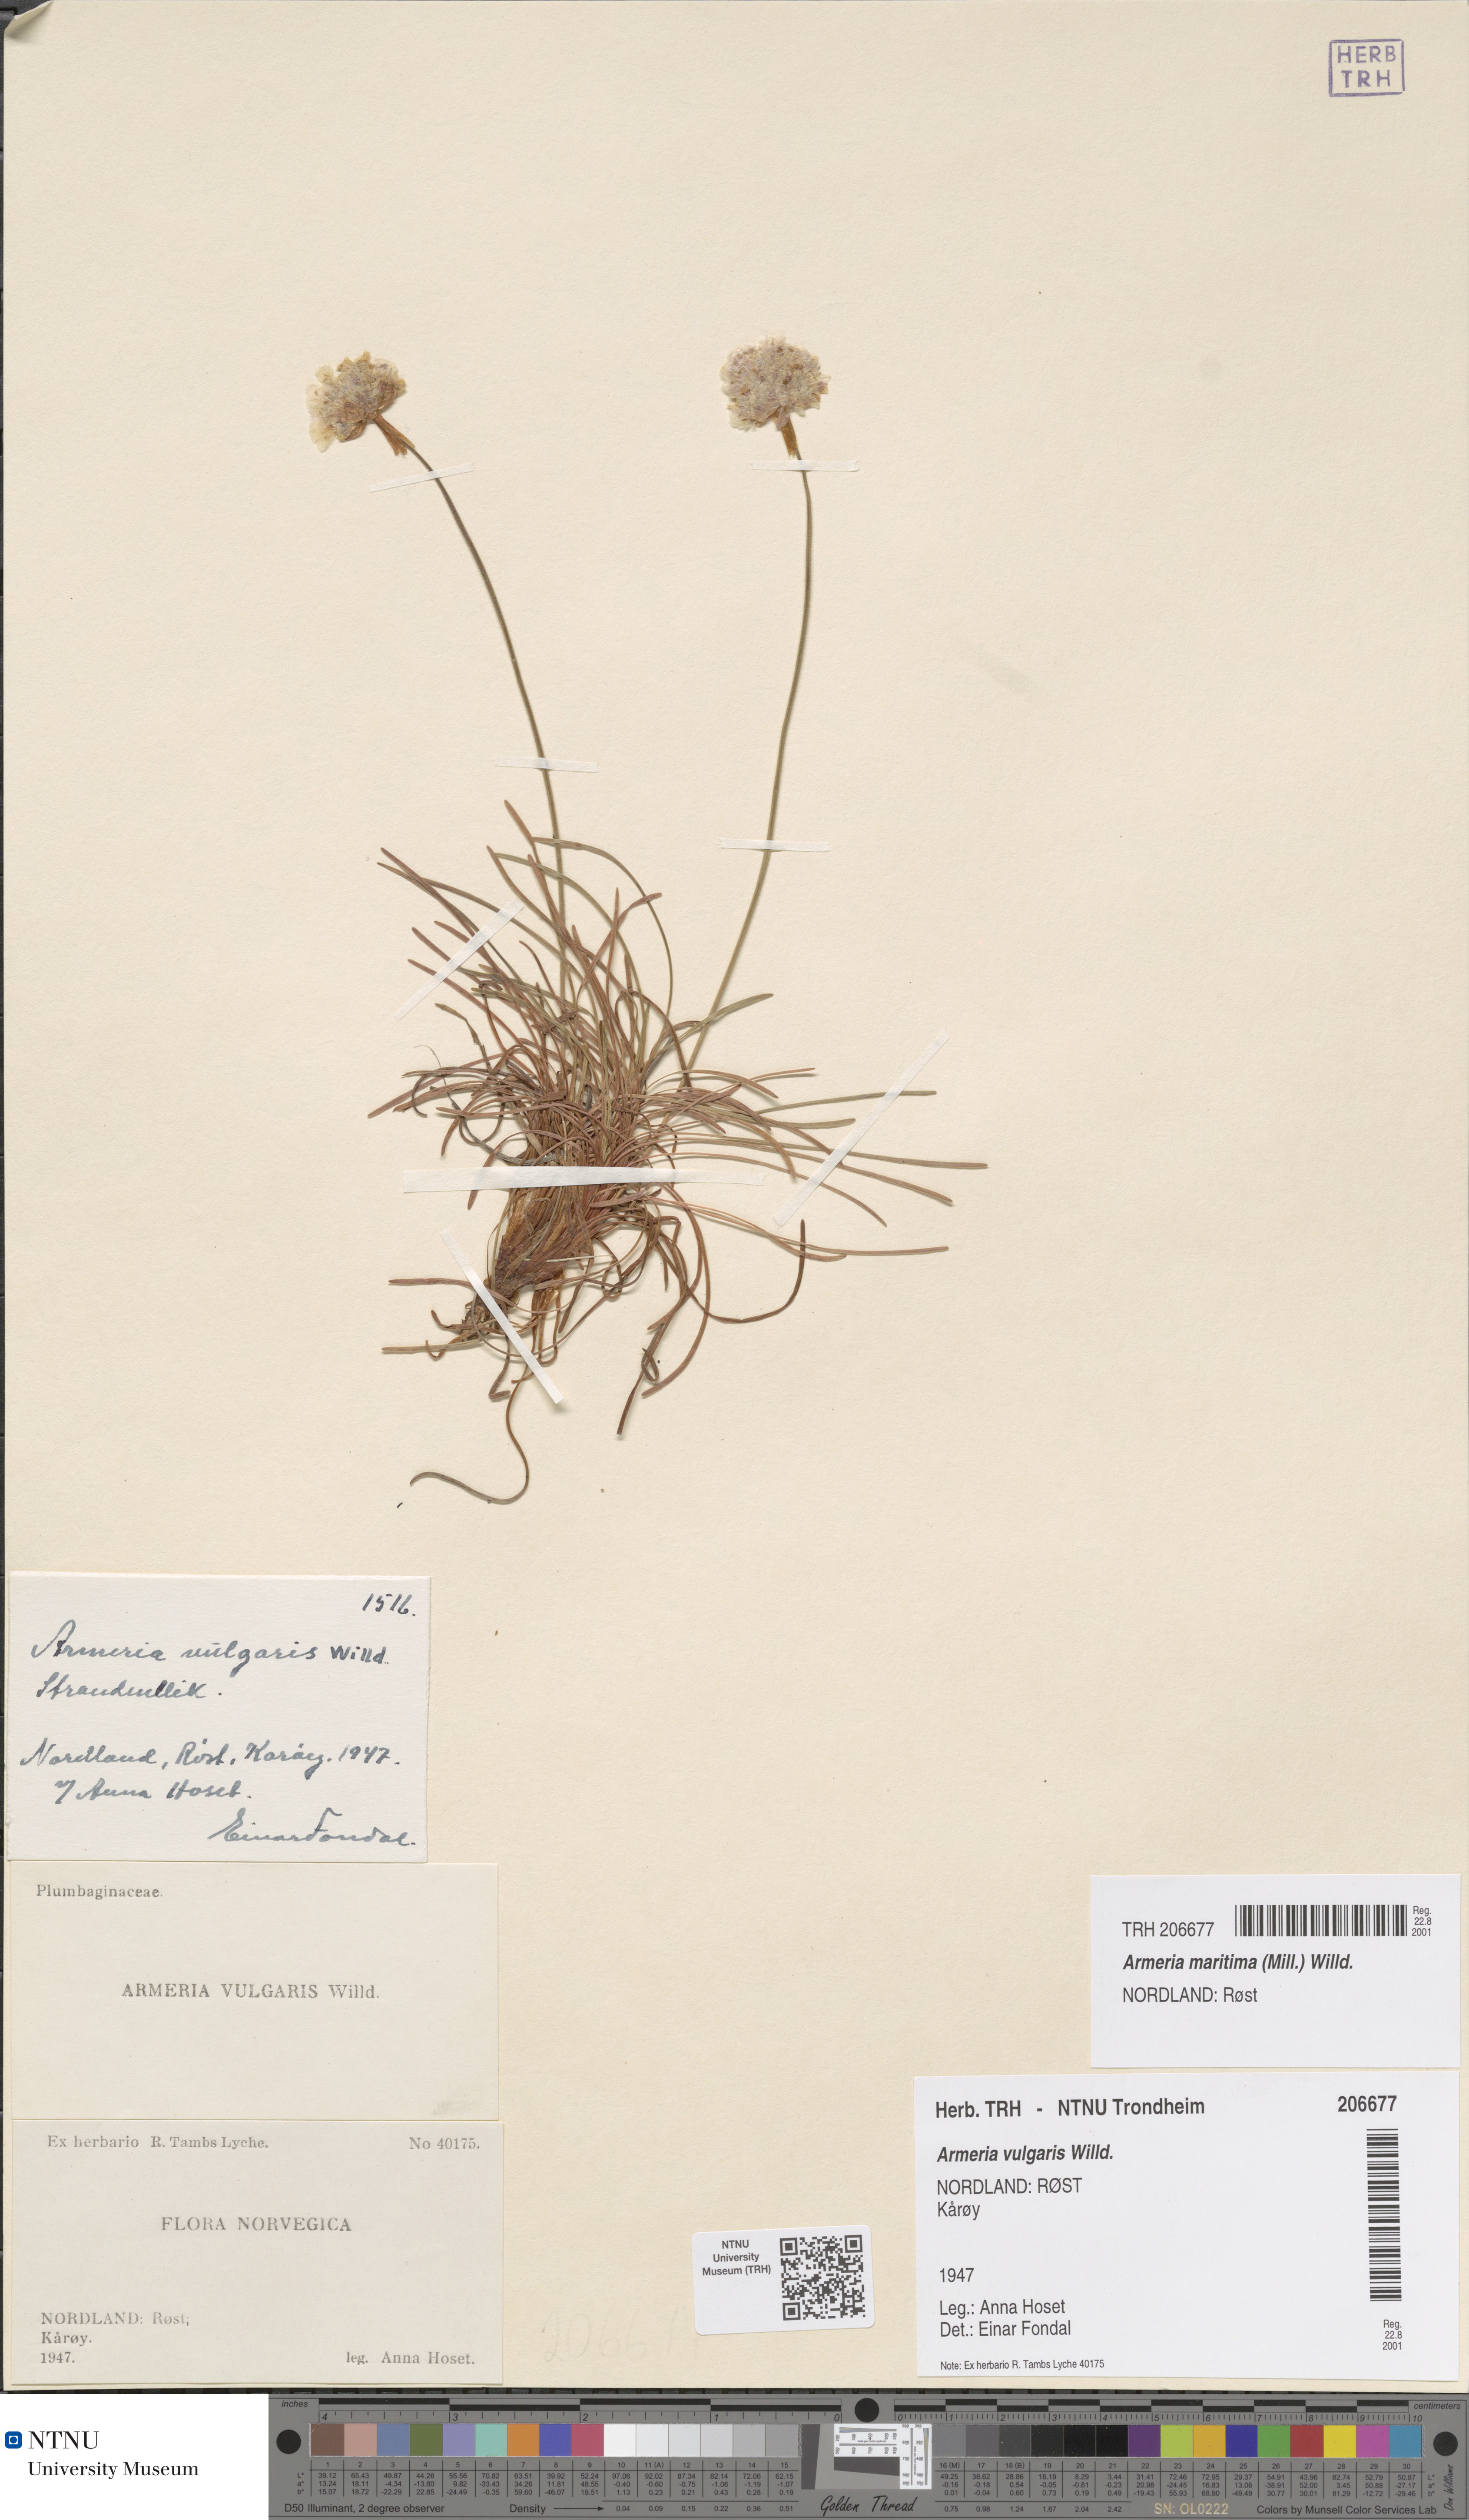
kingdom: Plantae
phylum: Tracheophyta
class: Magnoliopsida
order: Caryophyllales
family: Plumbaginaceae
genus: Armeria
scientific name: Armeria maritima
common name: Thrift
